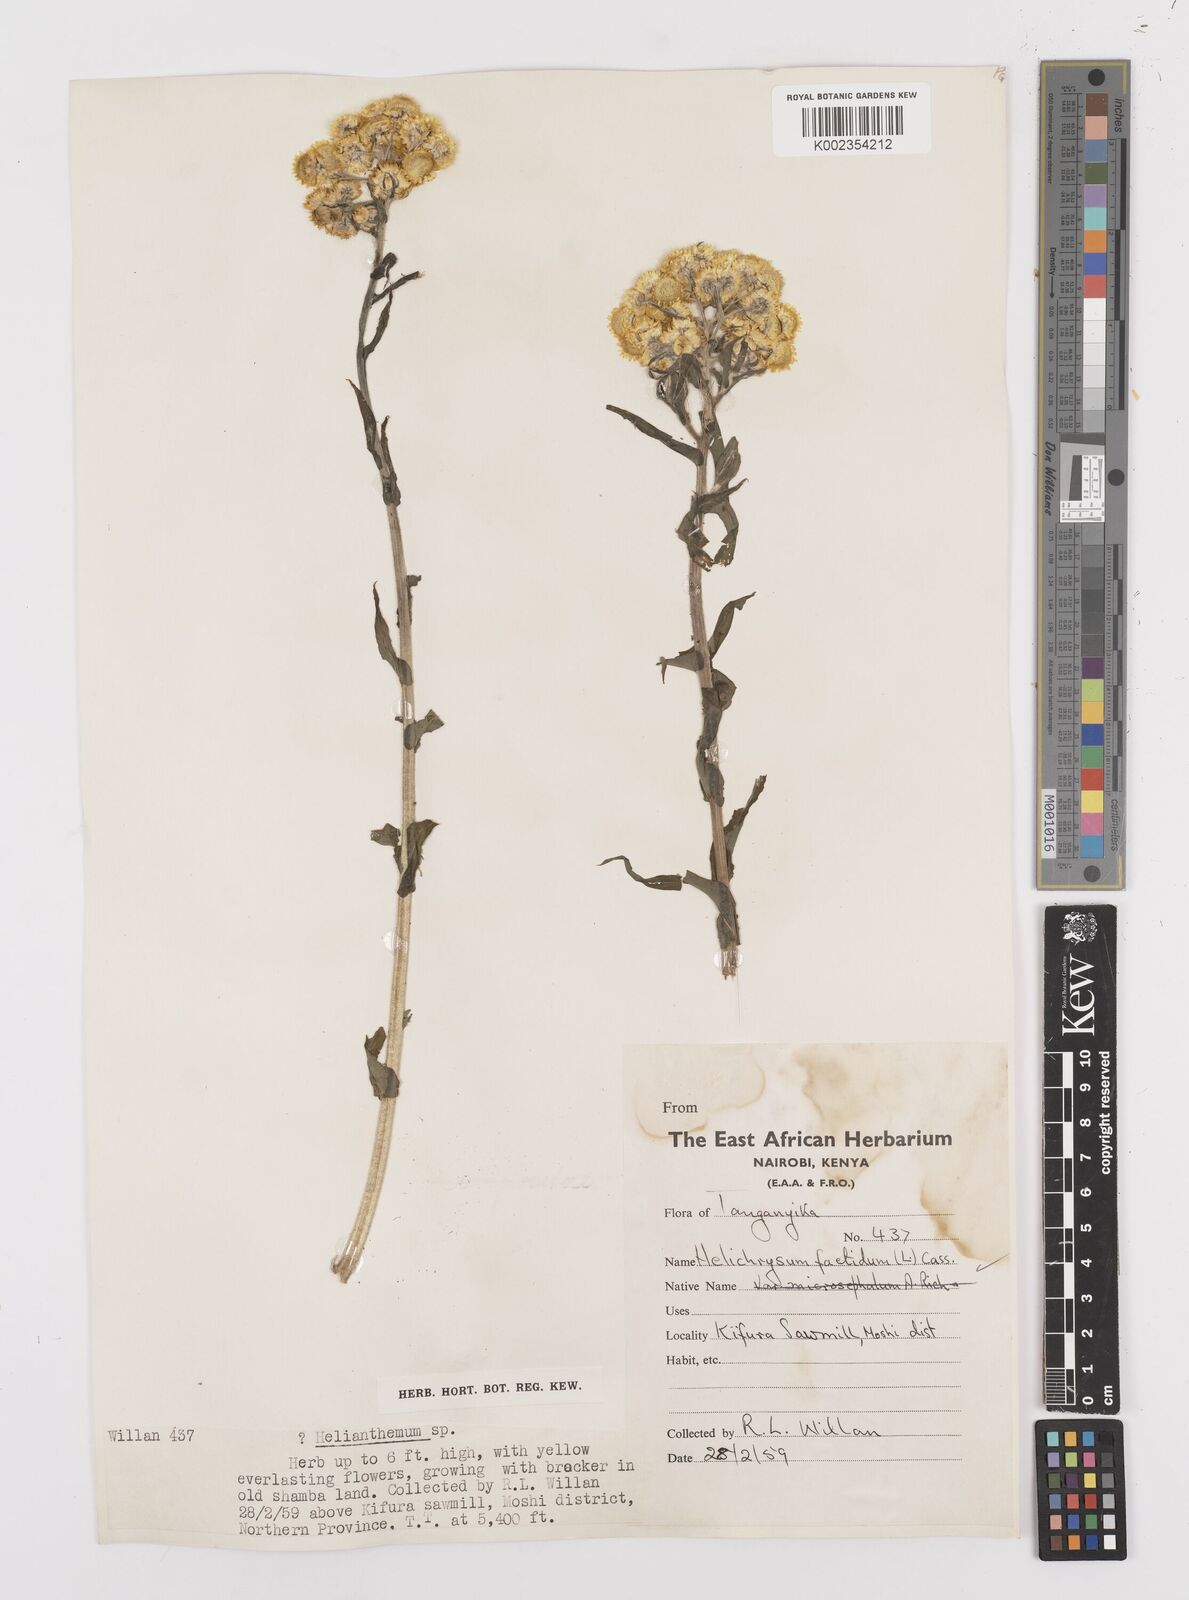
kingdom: Plantae
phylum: Tracheophyta
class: Magnoliopsida
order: Asterales
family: Asteraceae
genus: Helichrysum
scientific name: Helichrysum
